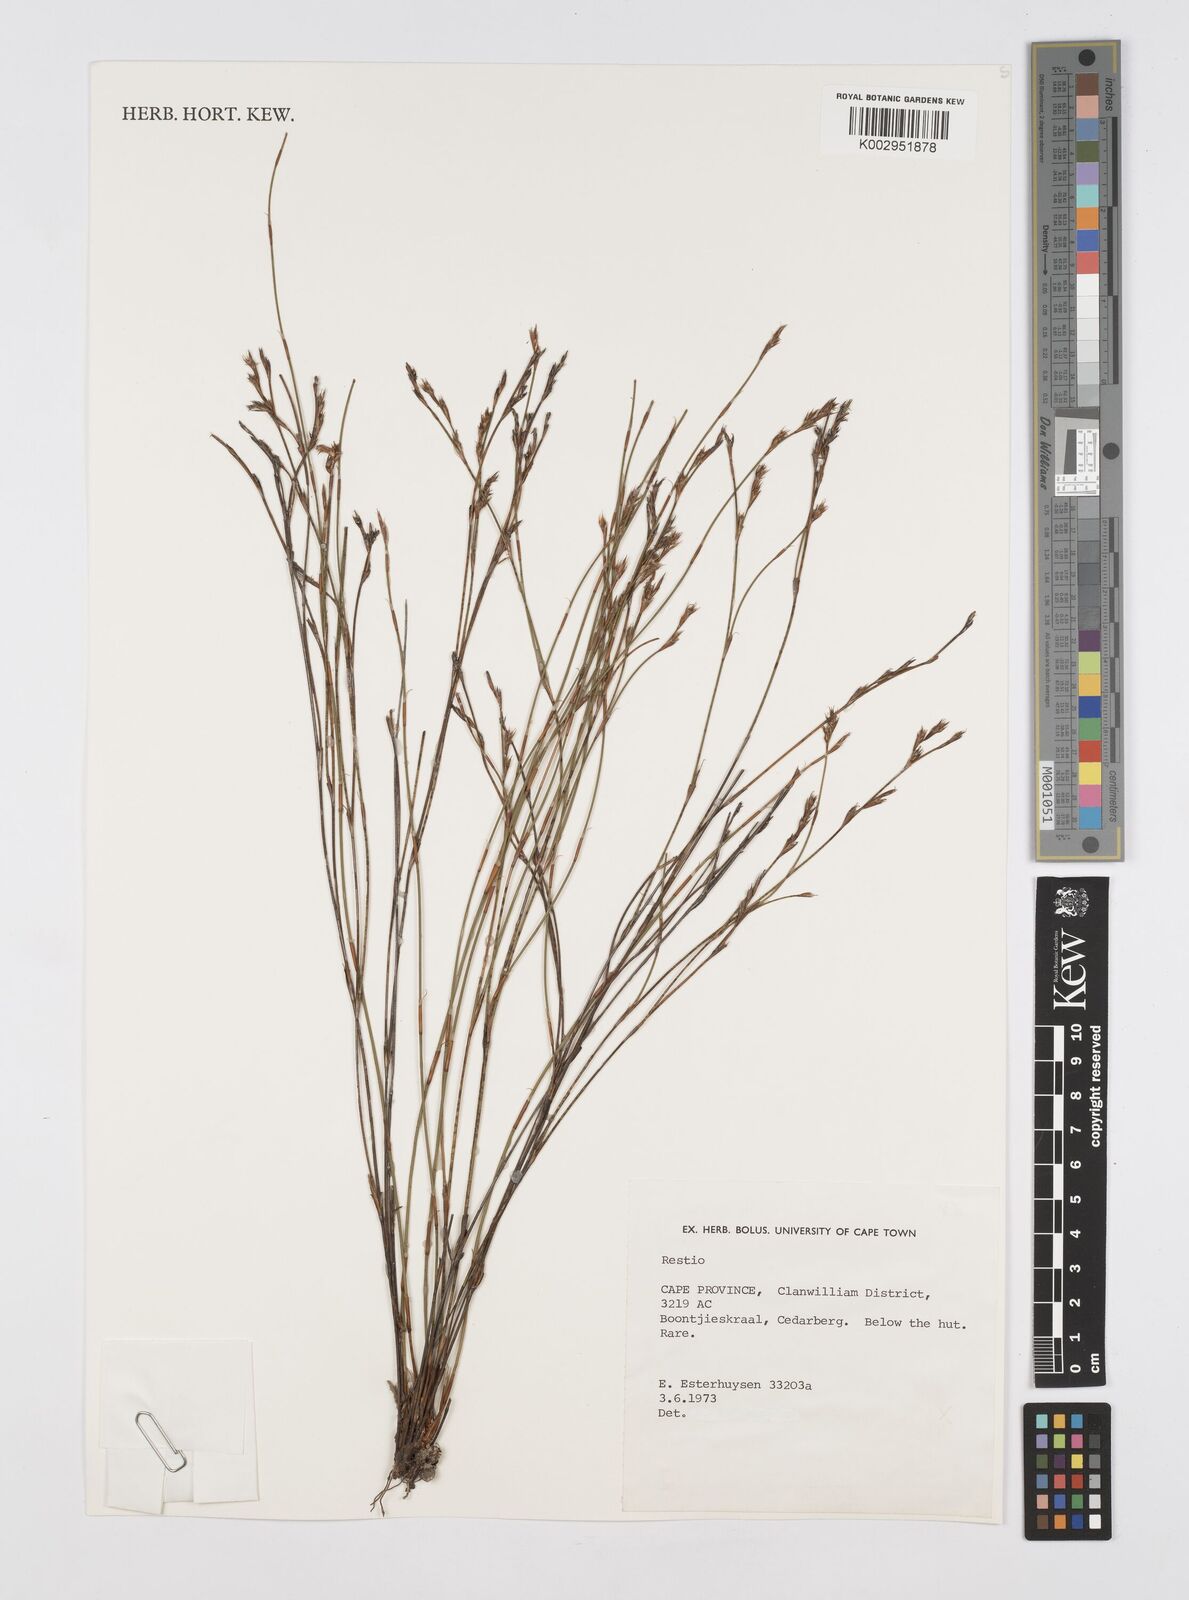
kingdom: Plantae
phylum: Tracheophyta
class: Liliopsida
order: Poales
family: Restionaceae
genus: Restio
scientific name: Restio
